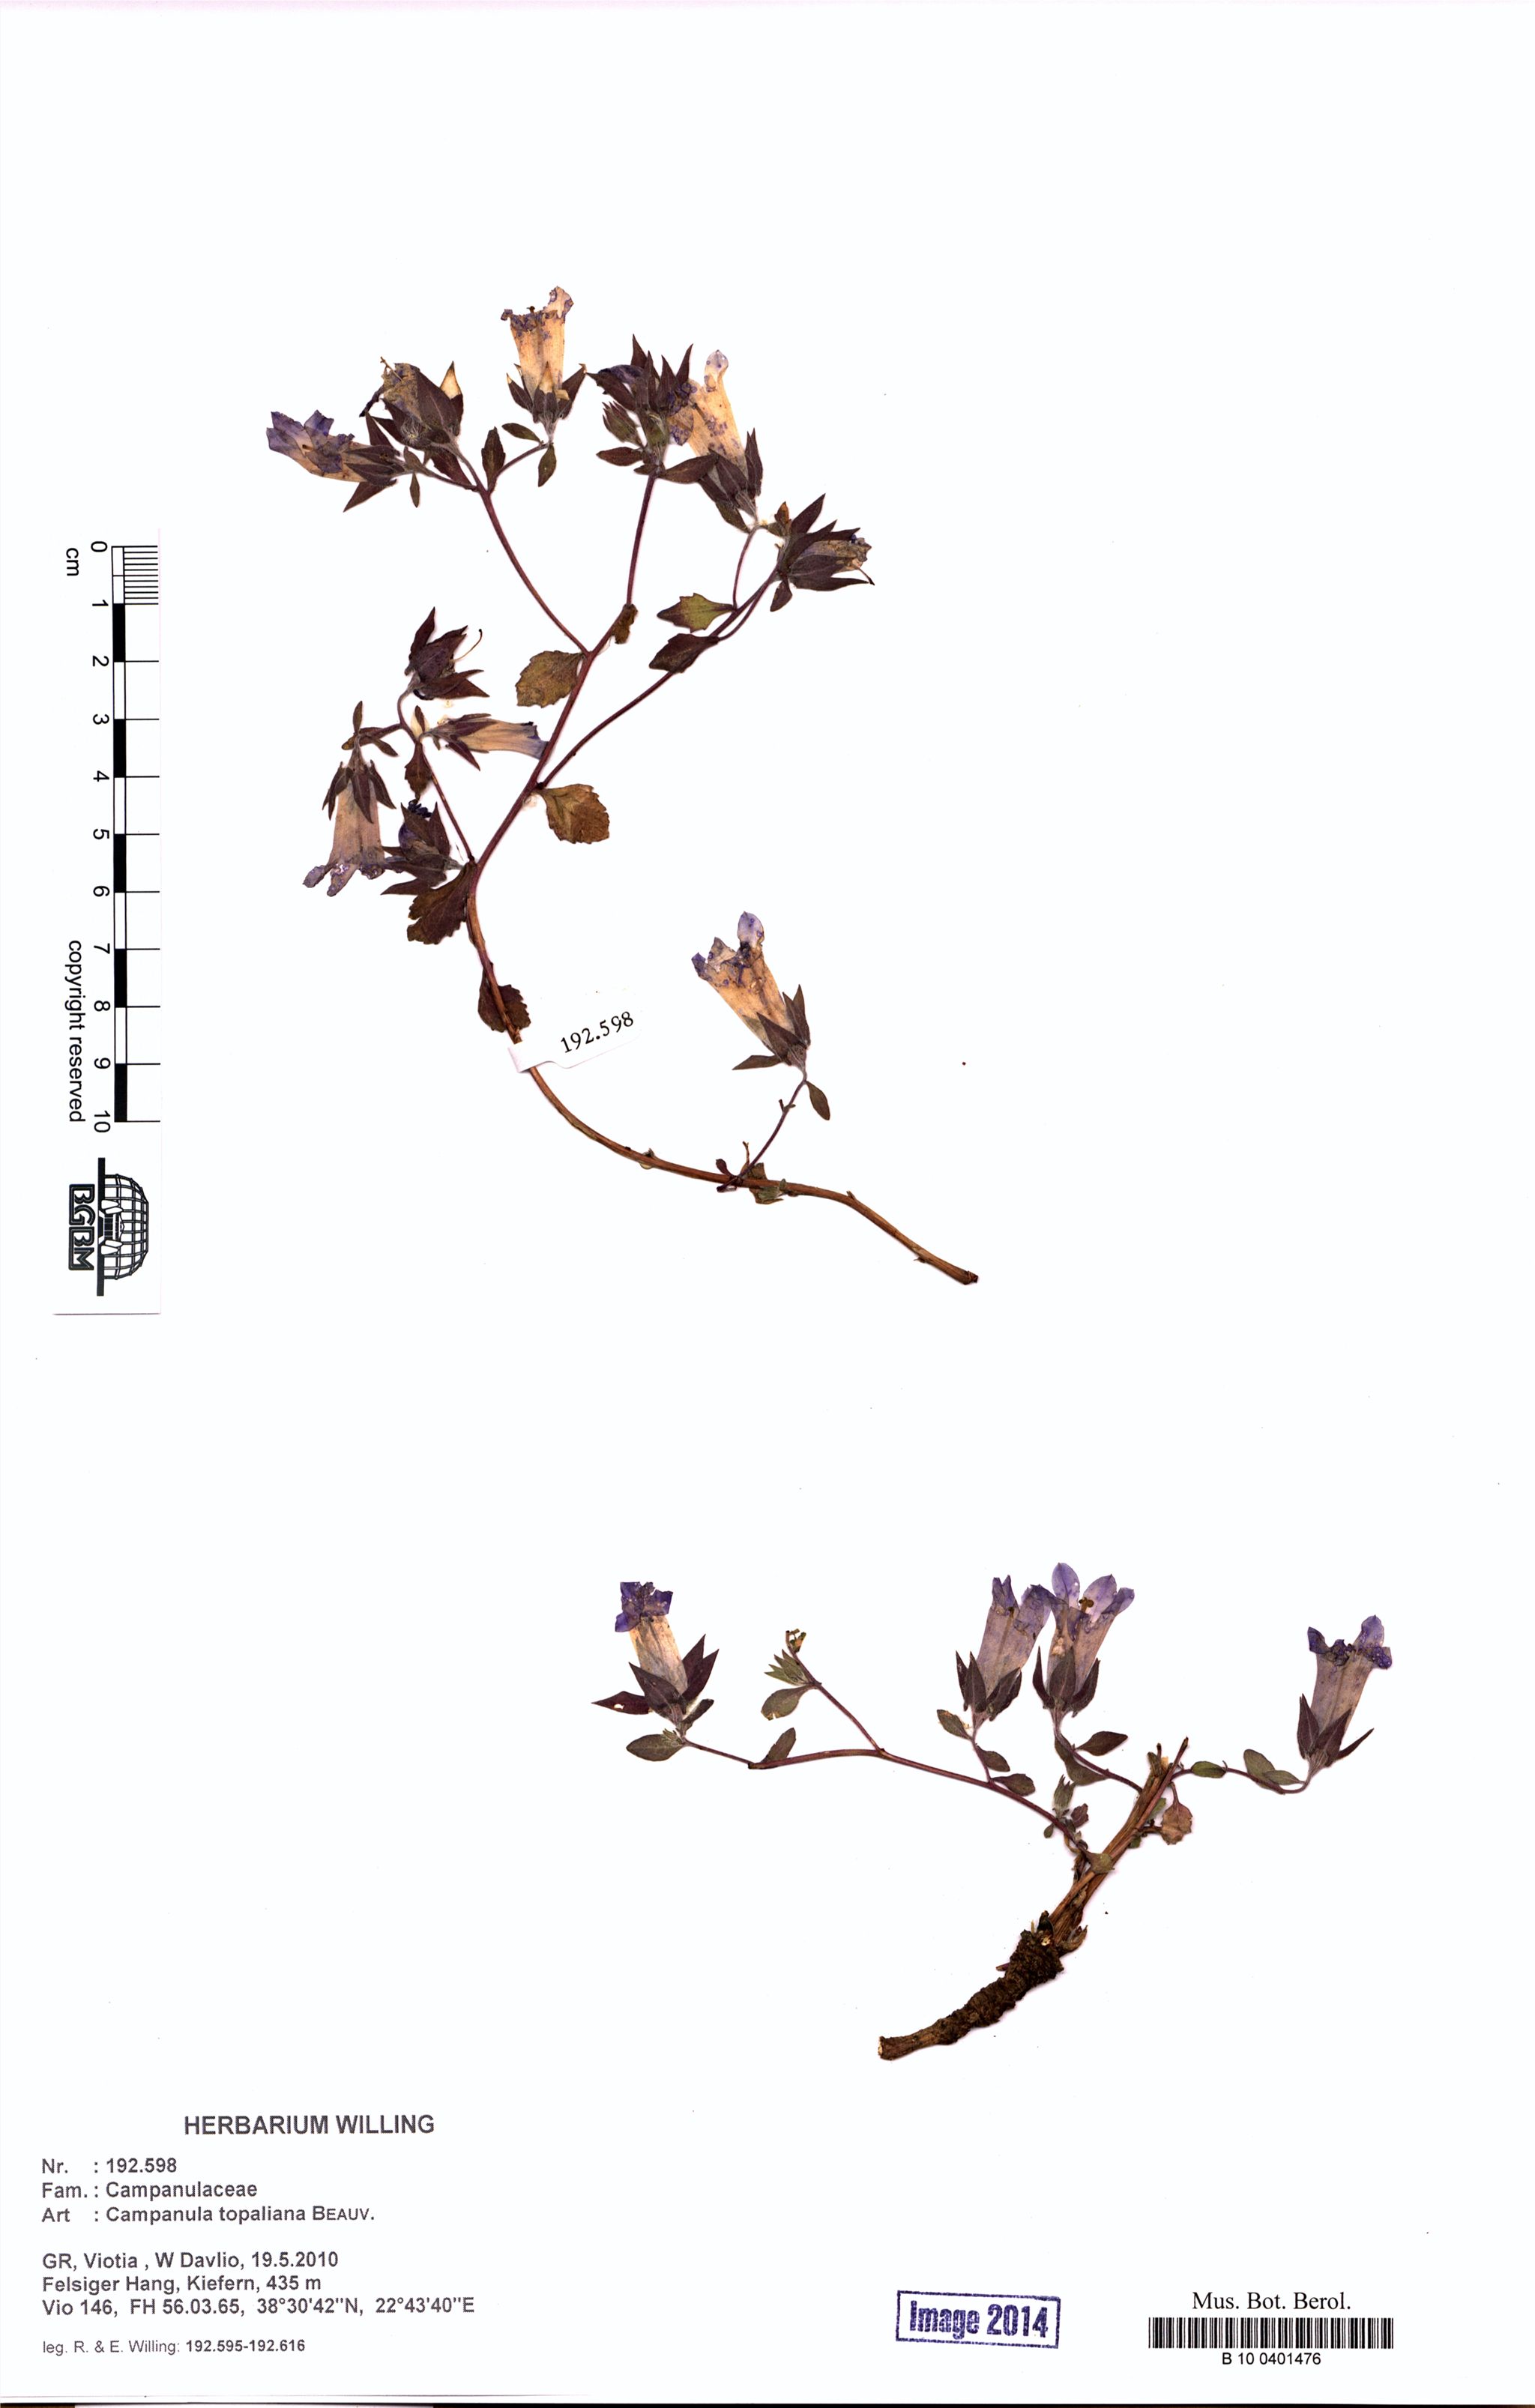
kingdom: Plantae
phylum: Tracheophyta
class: Magnoliopsida
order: Asterales
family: Campanulaceae
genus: Campanula
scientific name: Campanula topaliana
